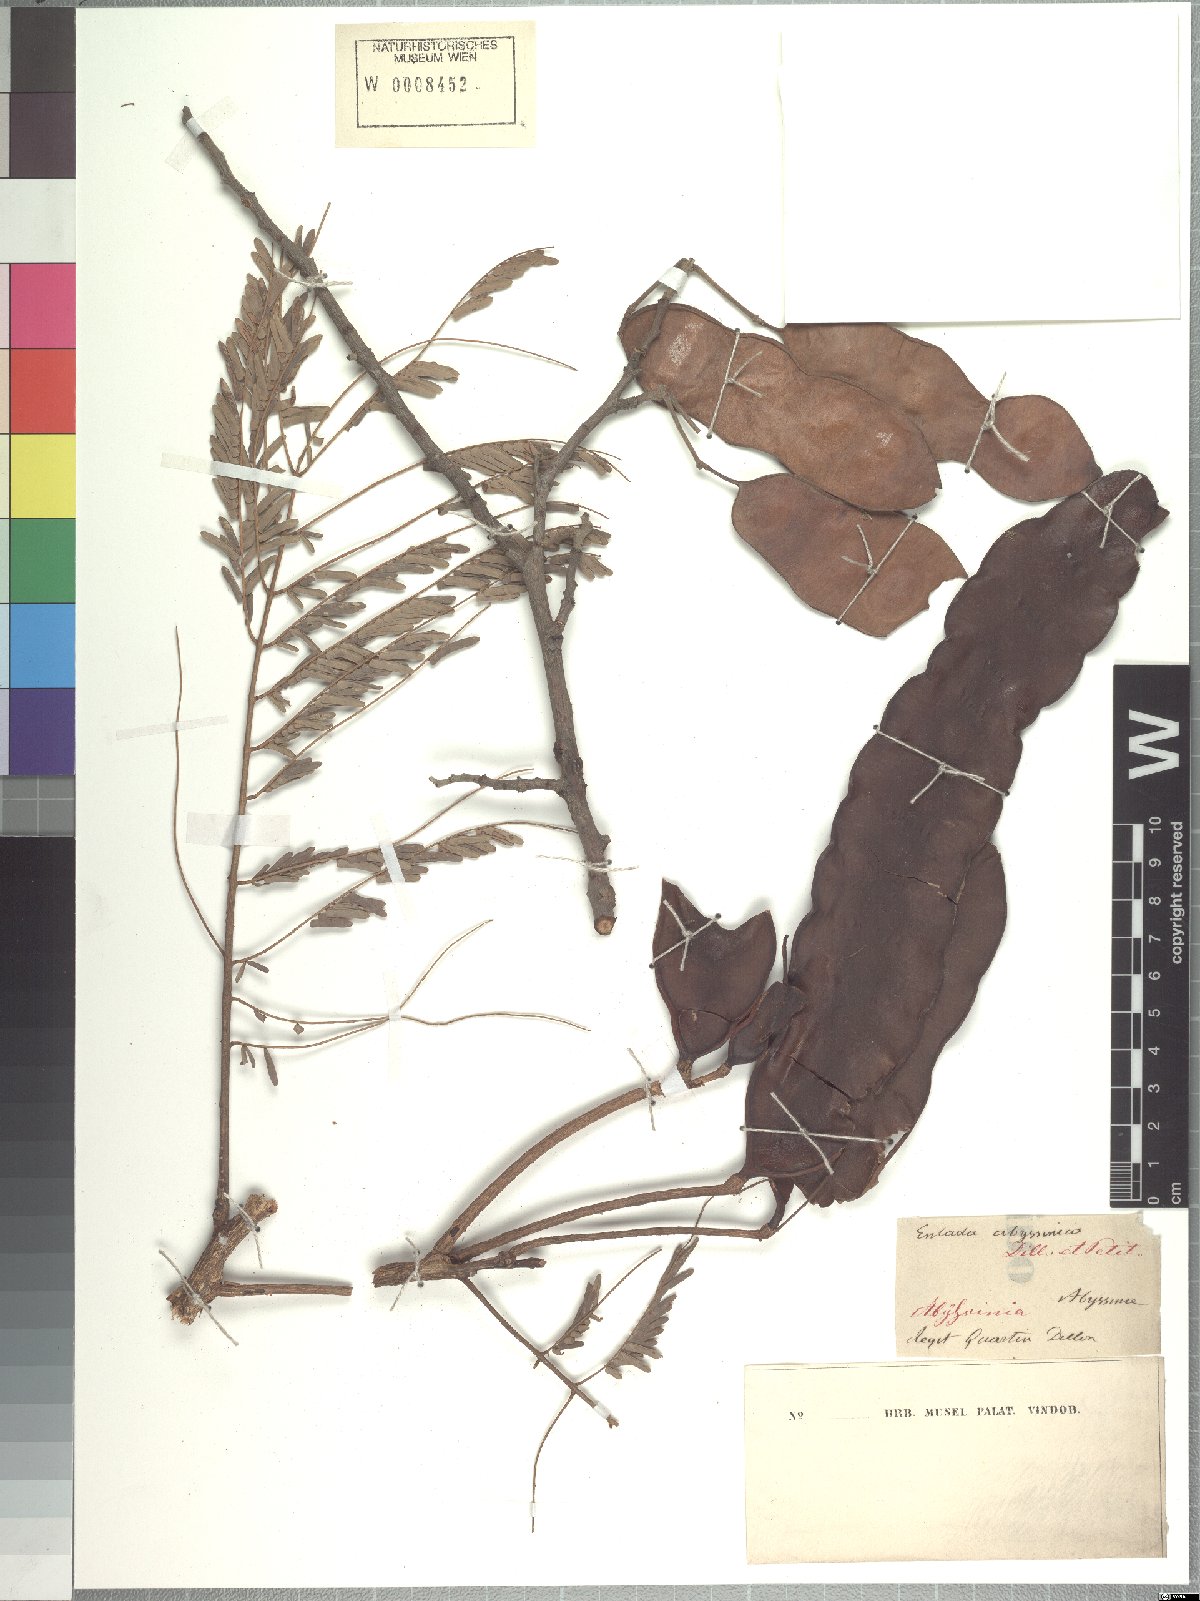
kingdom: Plantae
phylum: Tracheophyta
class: Magnoliopsida
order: Fabales
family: Fabaceae
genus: Entada
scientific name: Entada abyssinica
